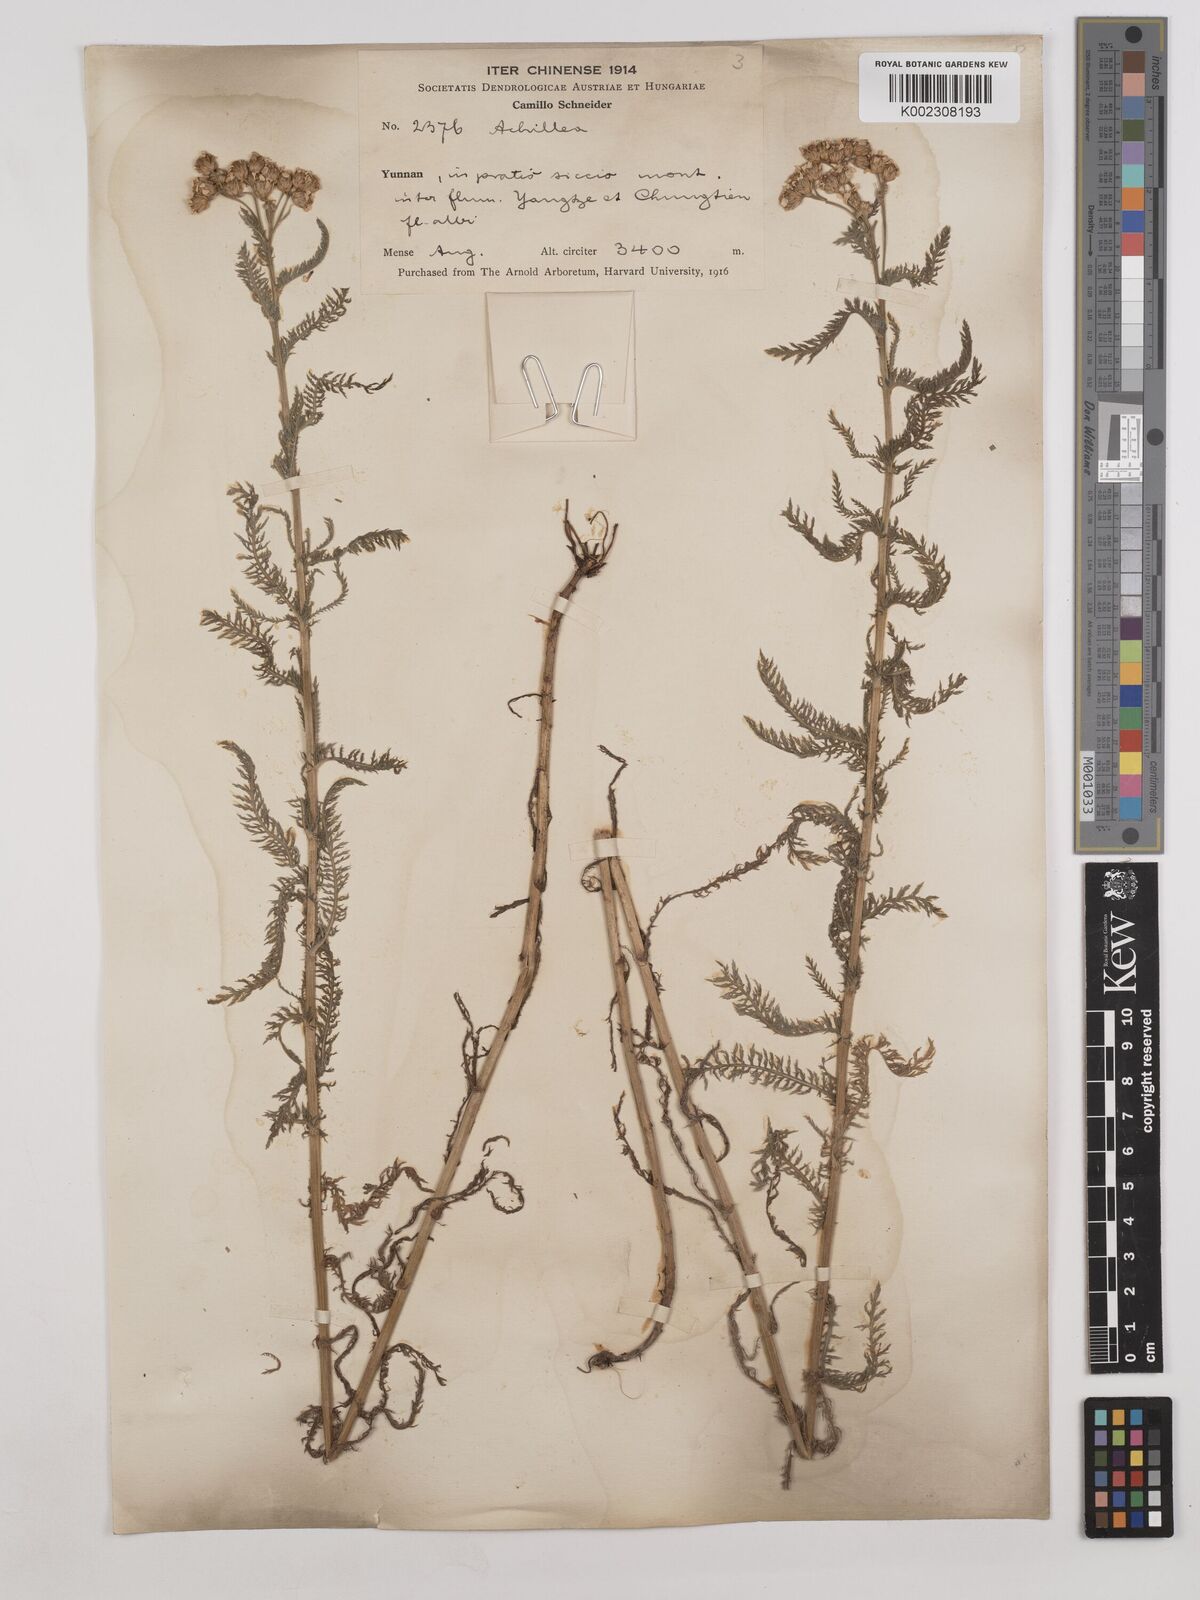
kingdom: Plantae
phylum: Tracheophyta
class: Magnoliopsida
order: Asterales
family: Asteraceae
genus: Achillea
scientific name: Achillea alpina
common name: Siberian yarrow
